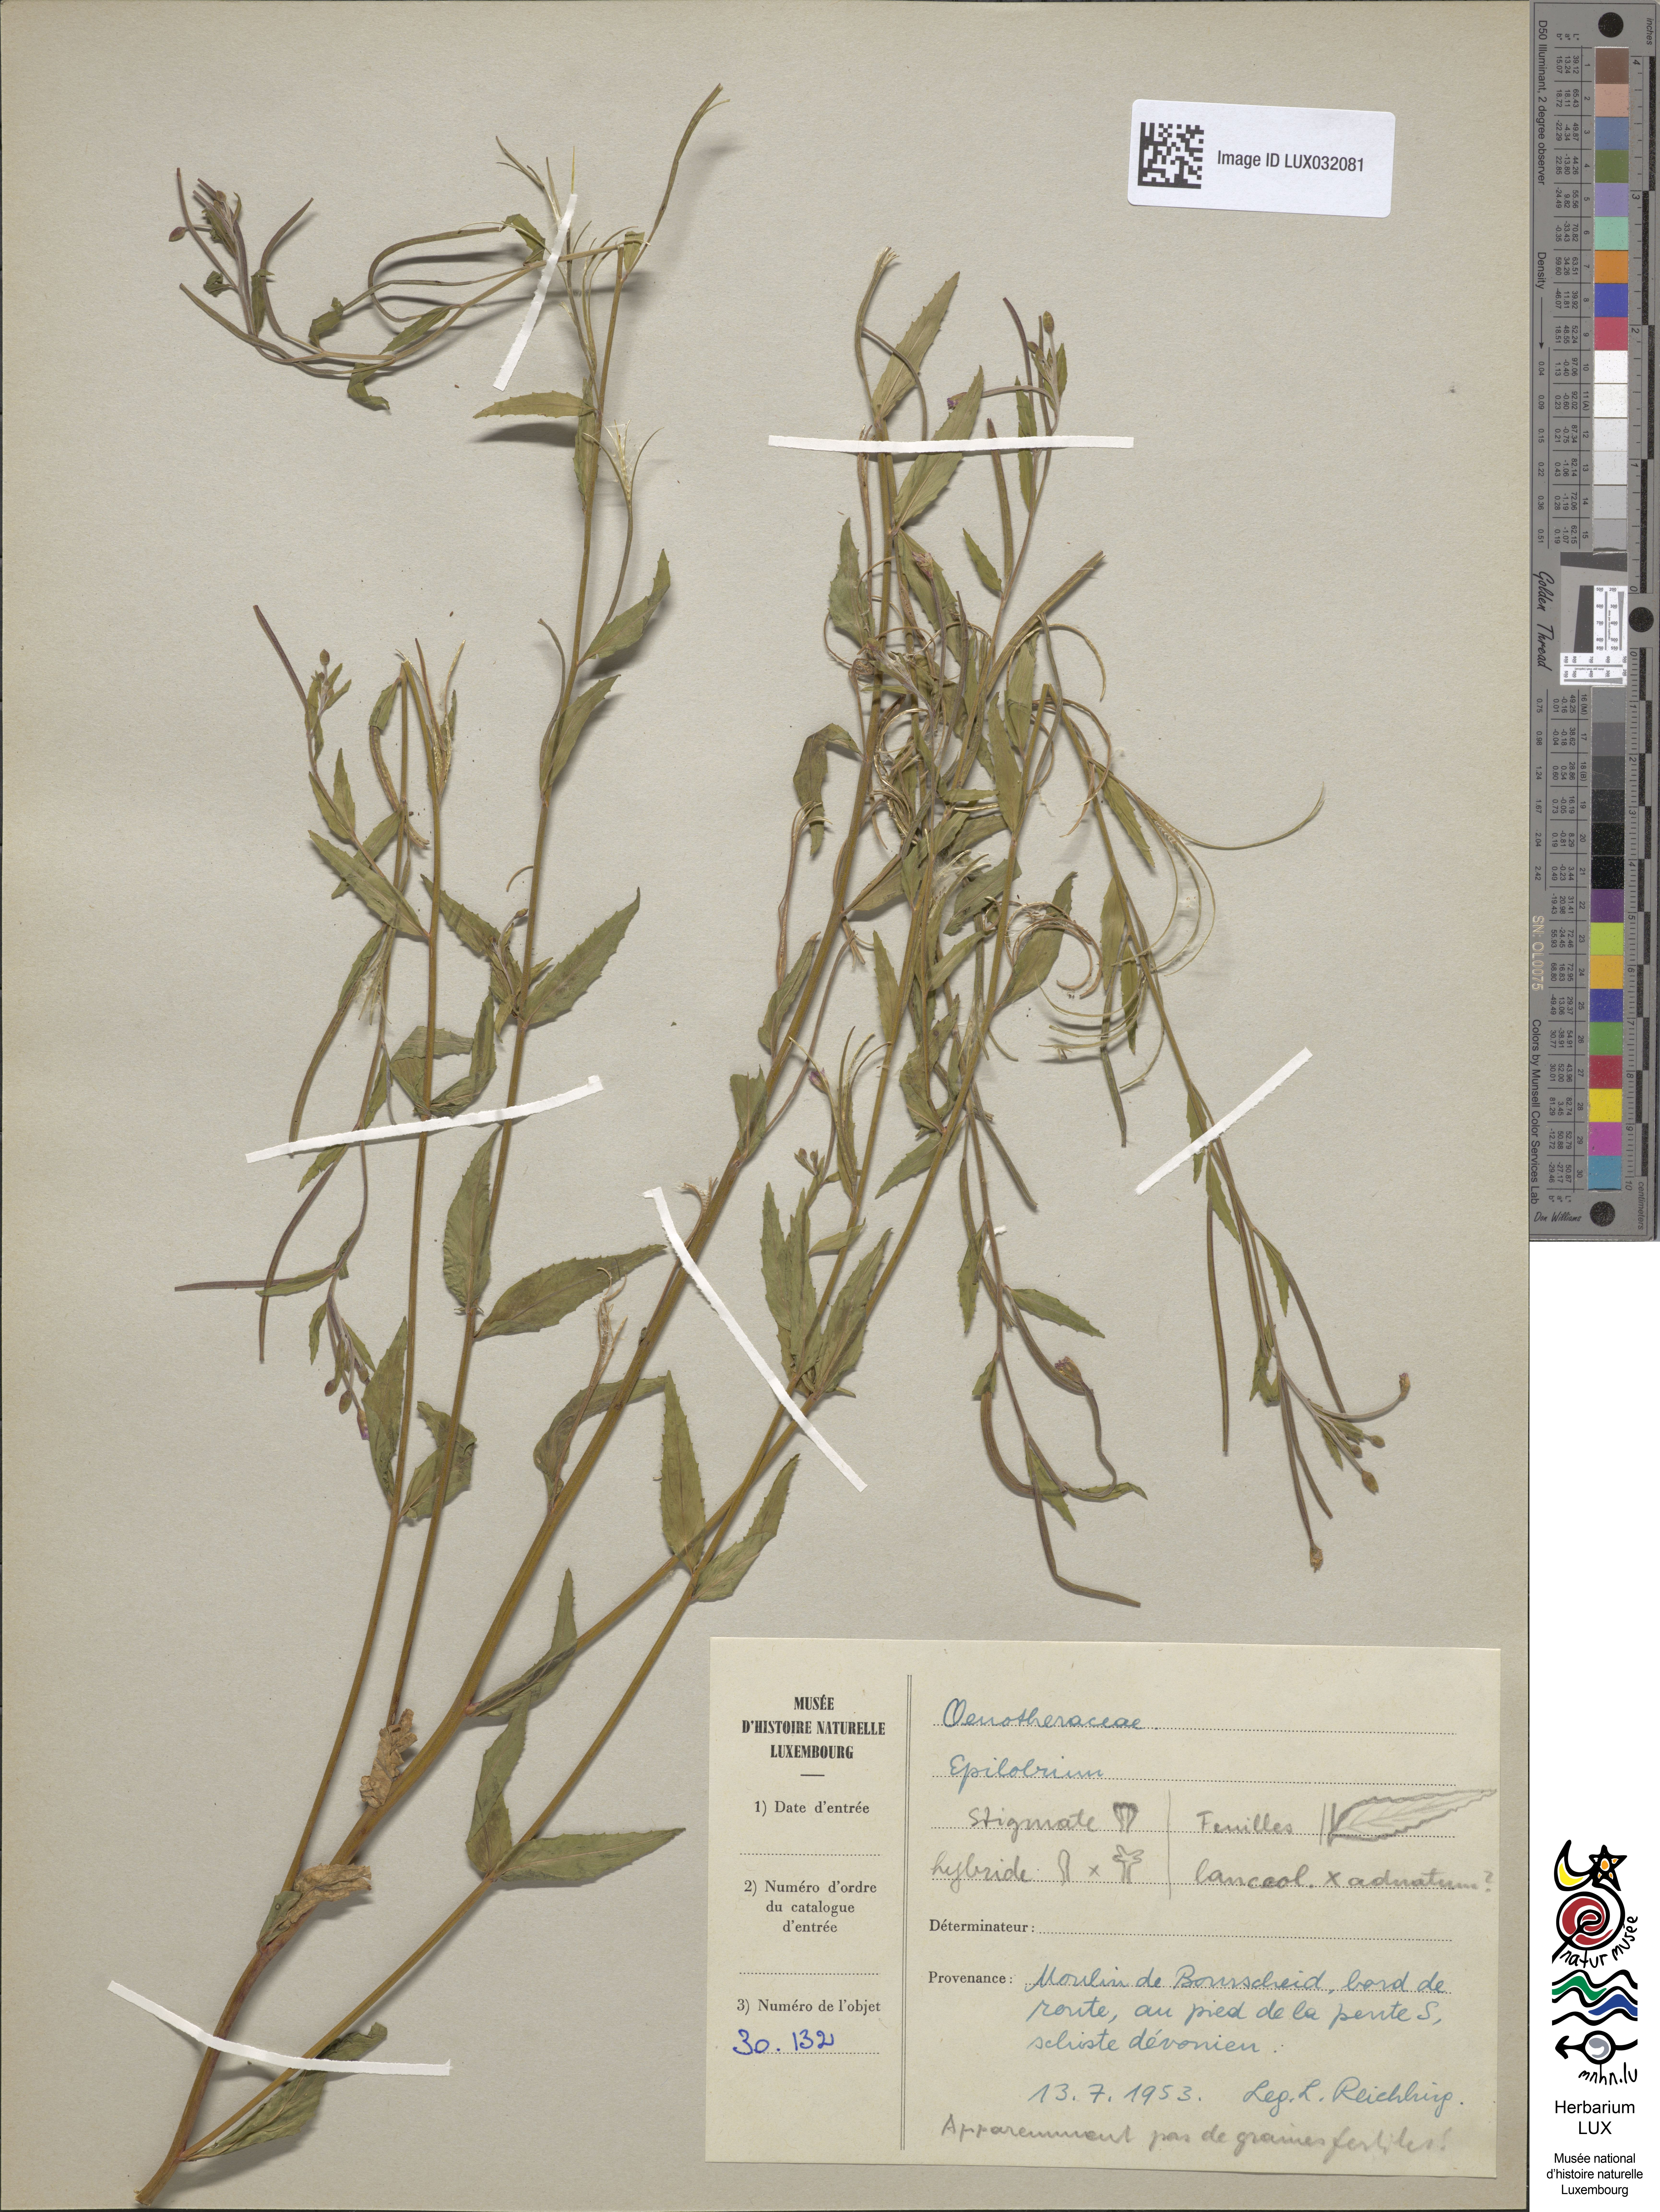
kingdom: Plantae
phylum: Tracheophyta
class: Magnoliopsida
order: Myrtales
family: Onagraceae
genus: Epilobium
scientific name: Epilobium lanceolatum
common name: Spear-leaved willowherb
